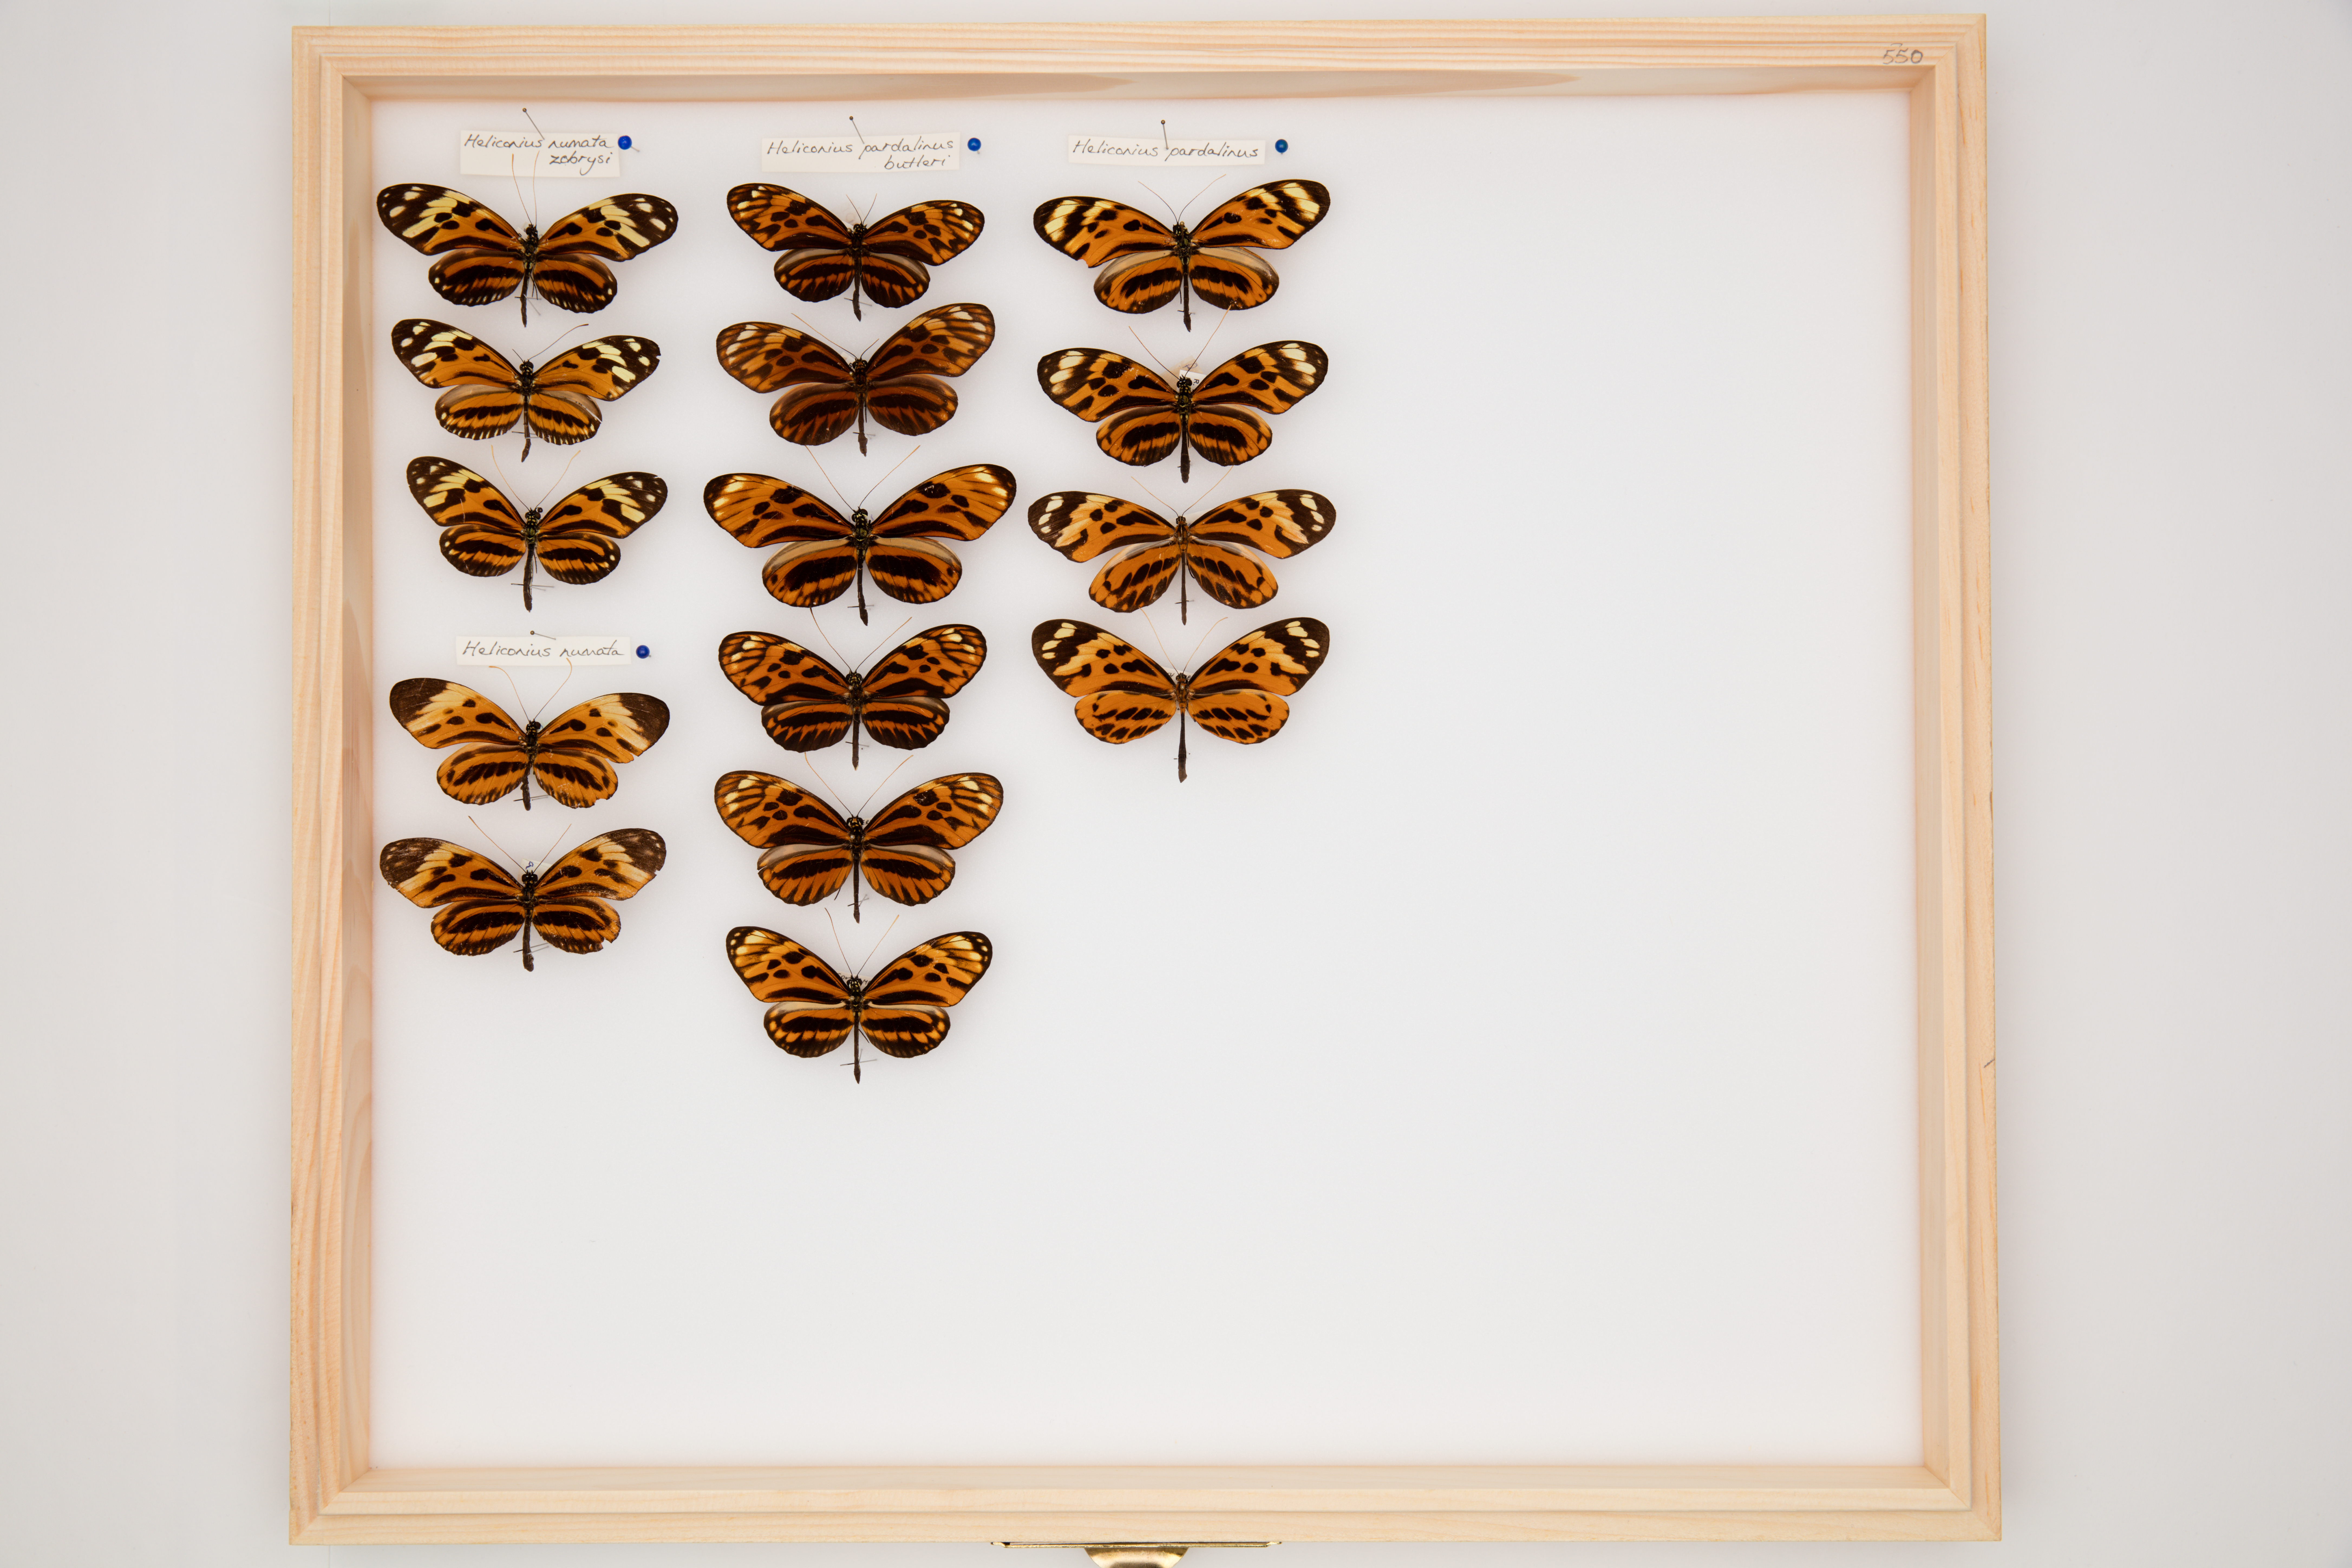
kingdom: Animalia
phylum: Arthropoda
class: Insecta
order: Lepidoptera
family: Nymphalidae
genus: Heliconius
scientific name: Heliconius pardalinus
